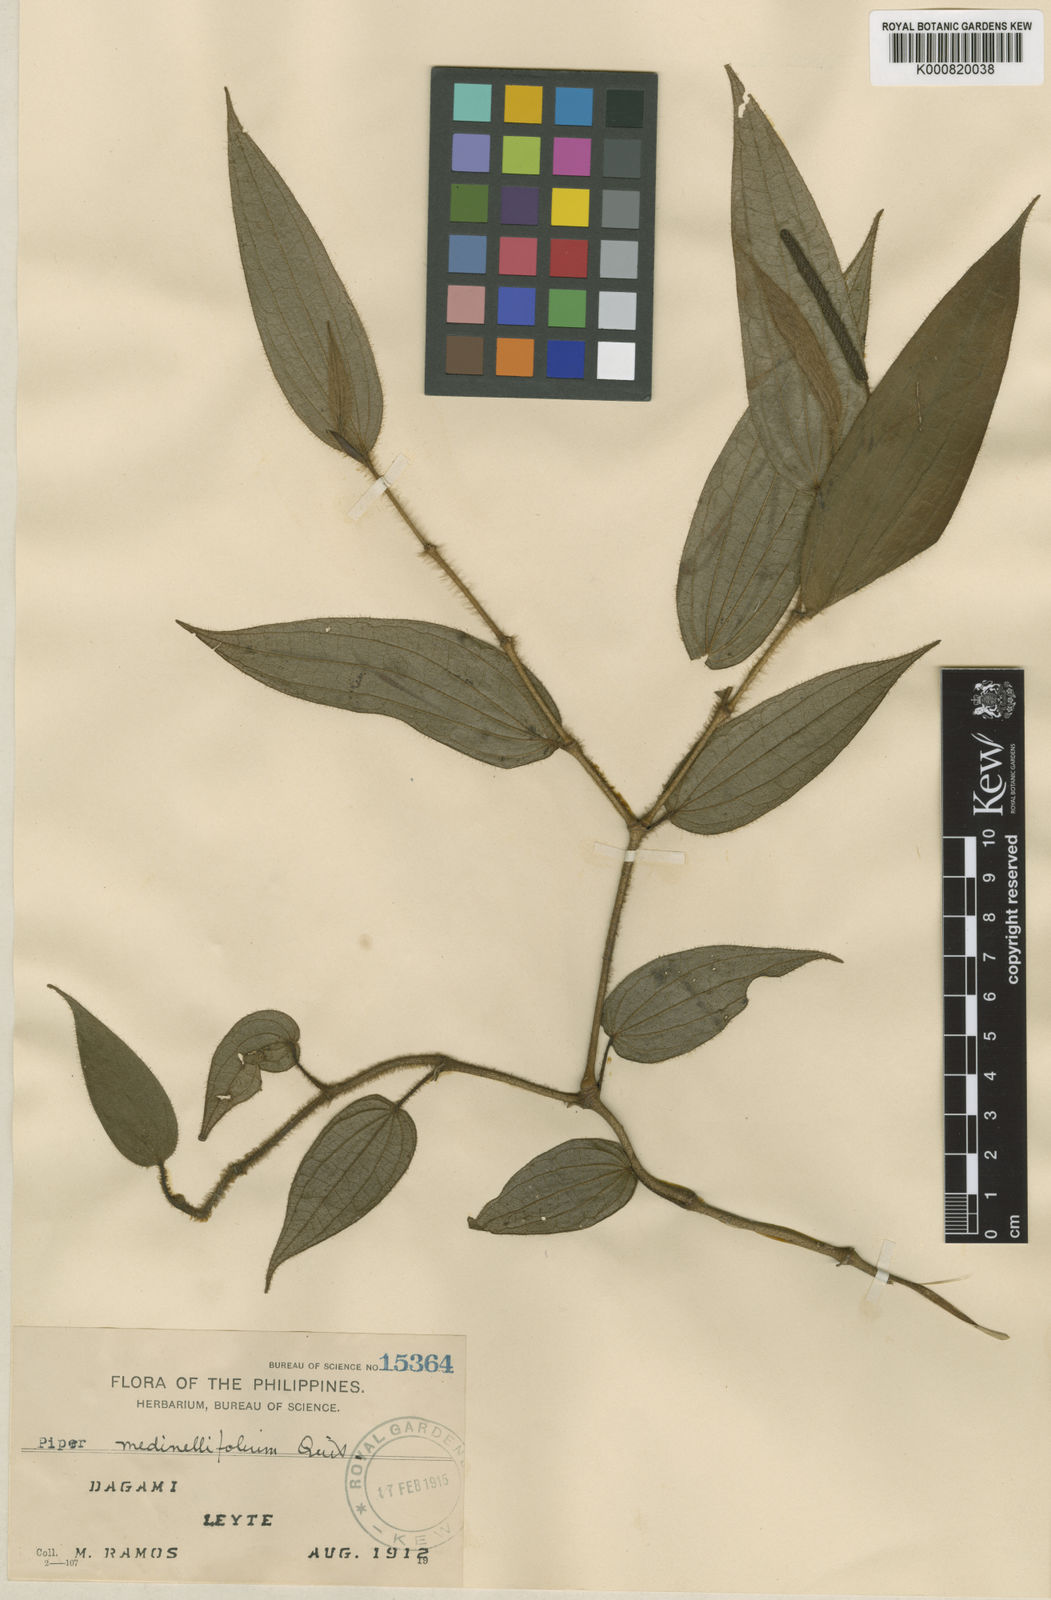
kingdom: Plantae
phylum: Tracheophyta
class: Magnoliopsida
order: Piperales
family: Piperaceae
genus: Piper
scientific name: Piper medinillifolium
